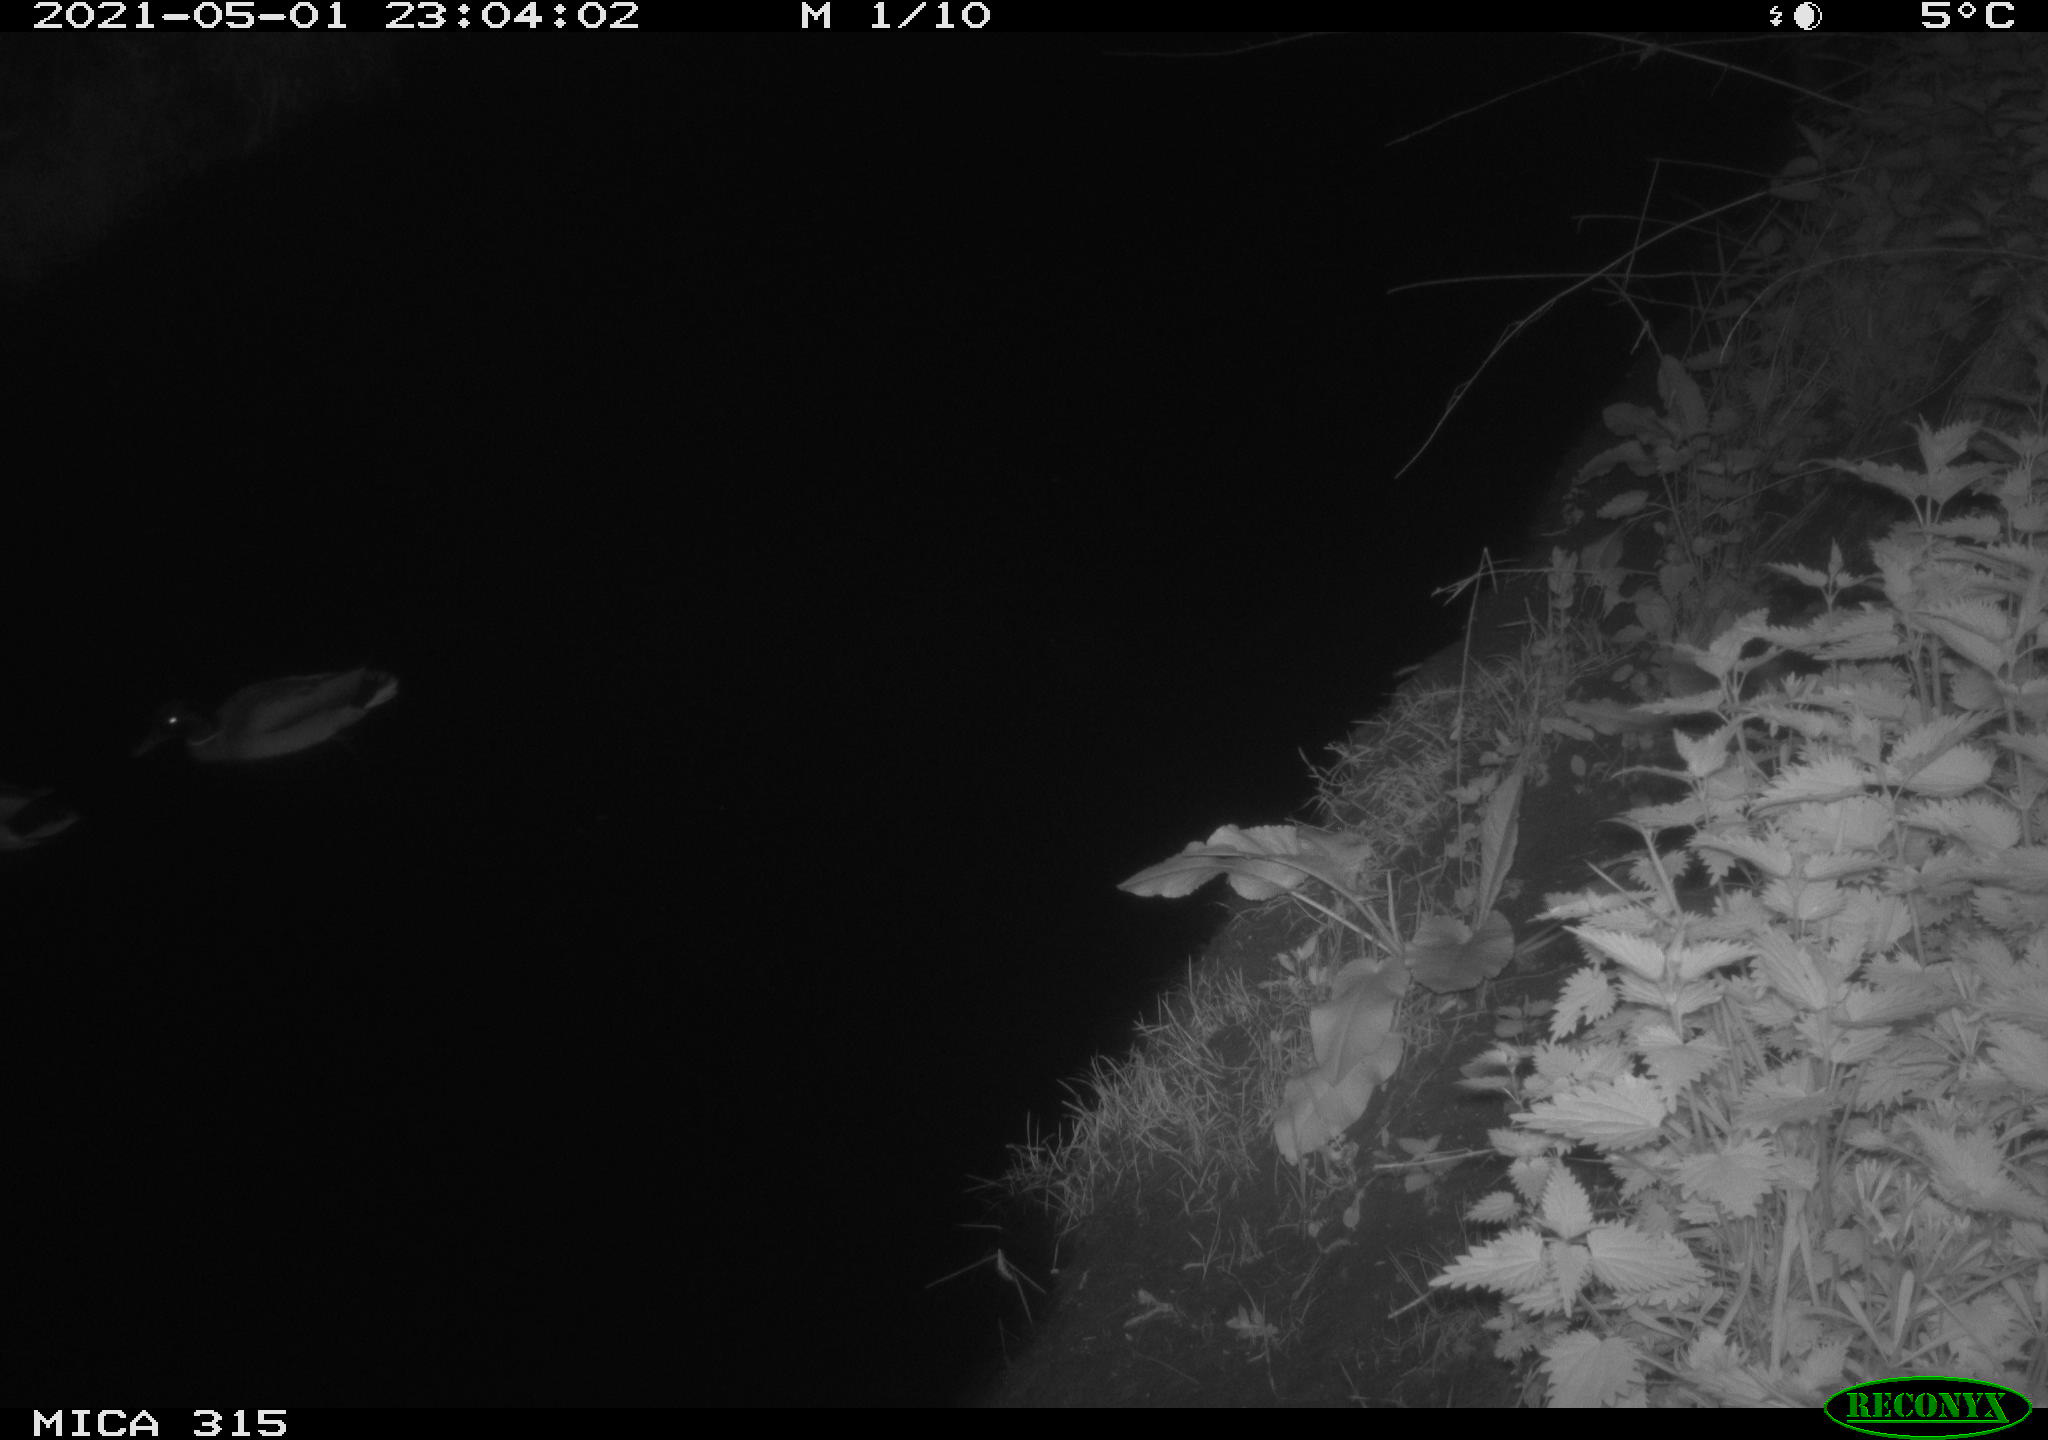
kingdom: Animalia
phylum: Chordata
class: Aves
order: Anseriformes
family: Anatidae
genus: Anas
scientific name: Anas
